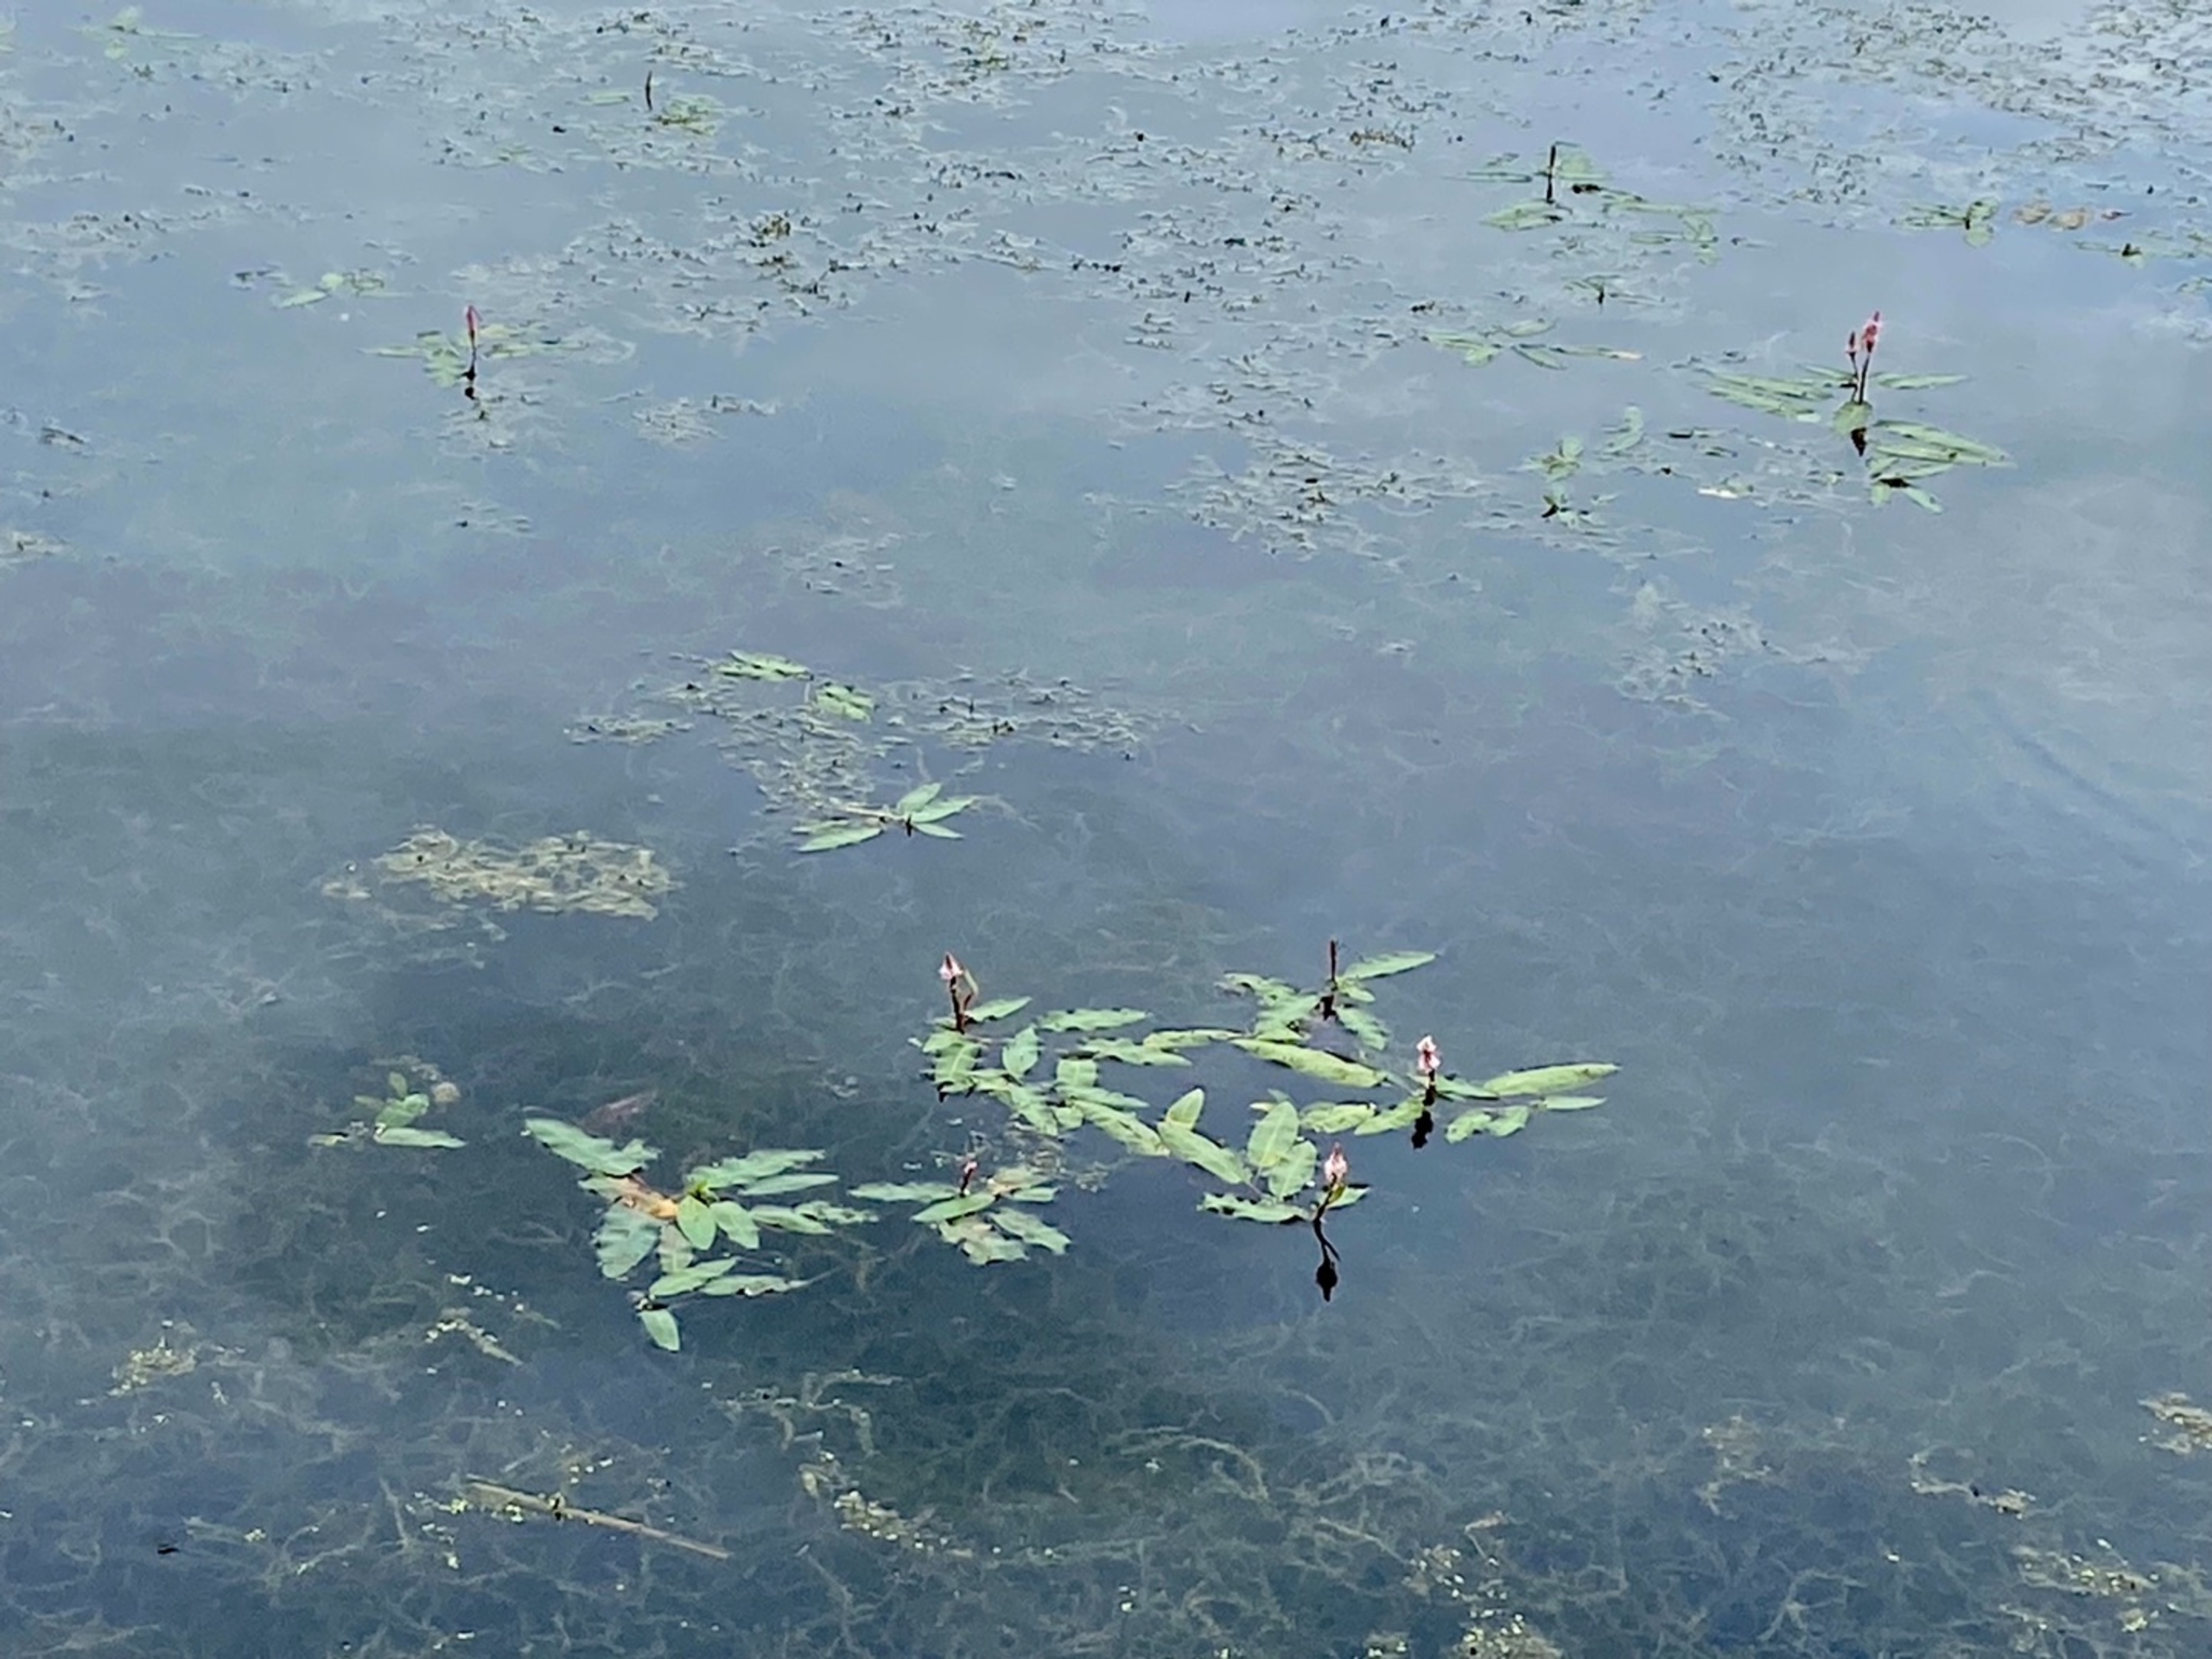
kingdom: Plantae
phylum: Tracheophyta
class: Magnoliopsida
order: Caryophyllales
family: Polygonaceae
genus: Persicaria
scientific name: Persicaria amphibia
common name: Vand-pileurt
